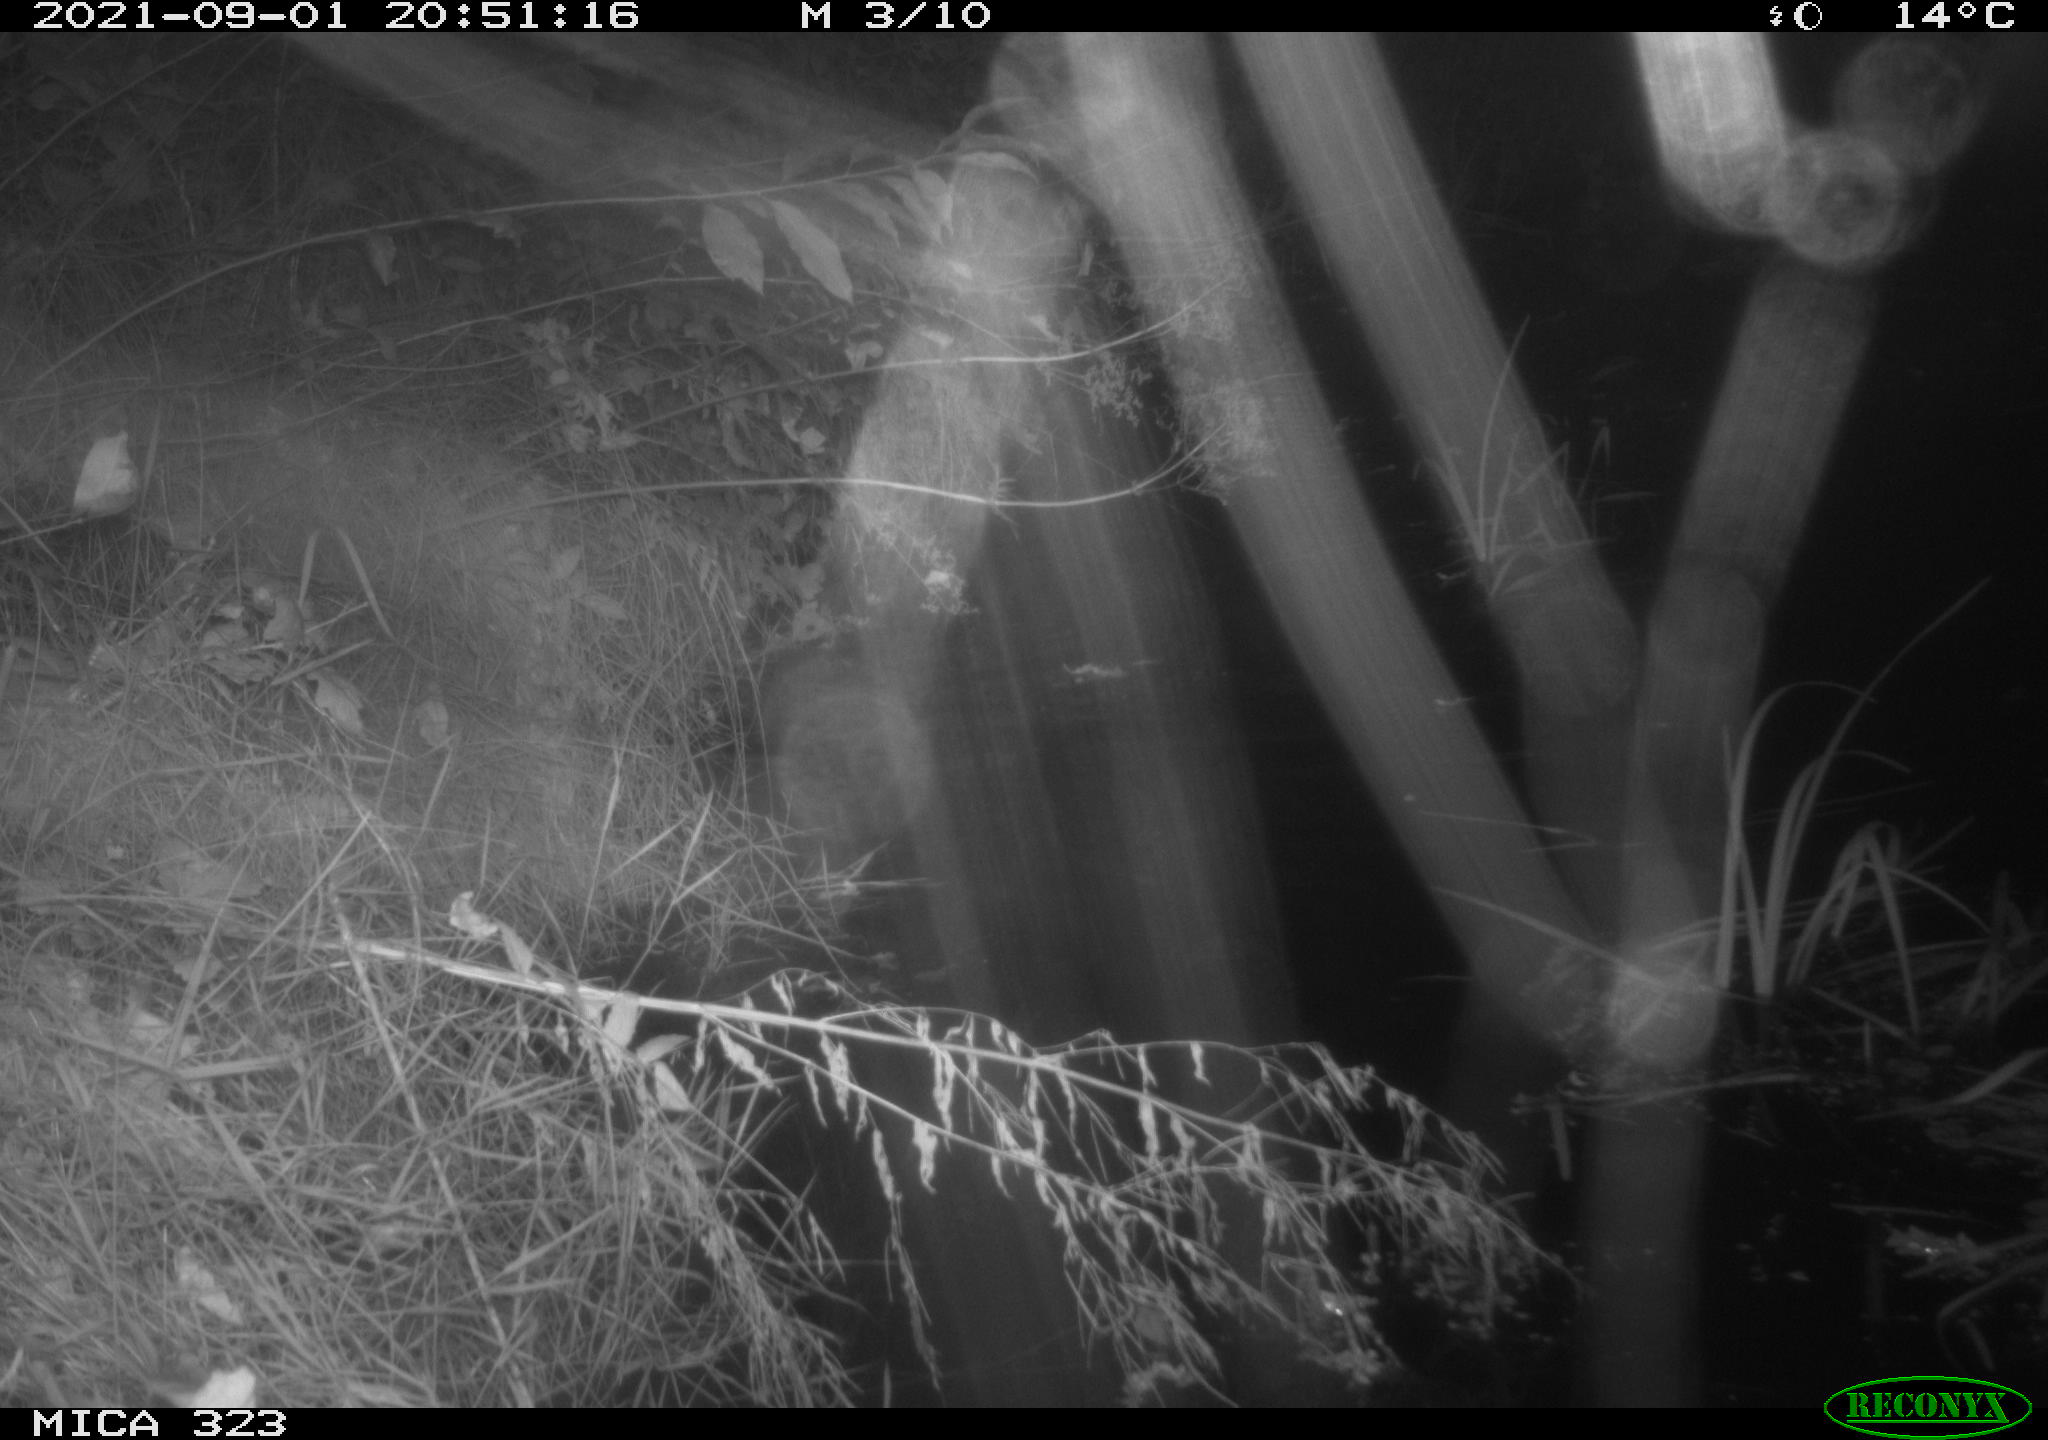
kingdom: Animalia
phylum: Chordata
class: Aves
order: Anseriformes
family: Anatidae
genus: Anas
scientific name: Anas
